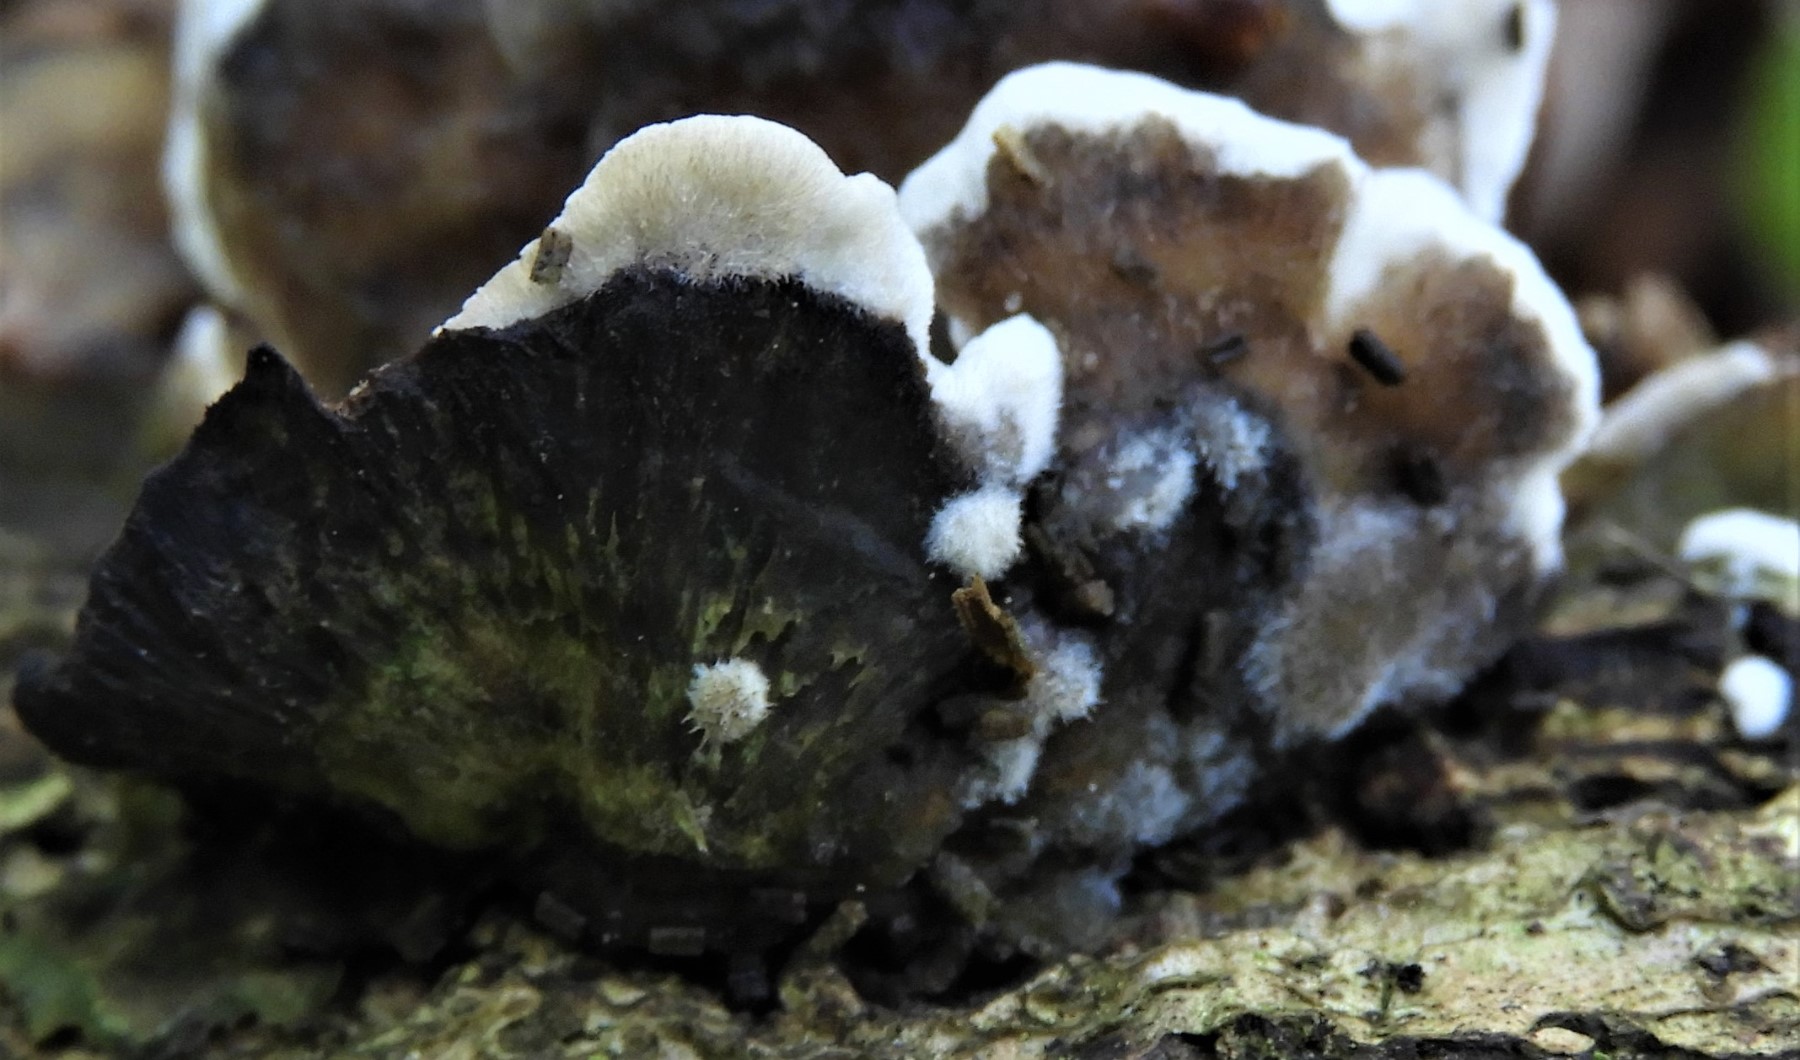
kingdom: Fungi
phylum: Basidiomycota
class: Agaricomycetes
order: Hymenochaetales
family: Hymenochaetaceae
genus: Mensularia
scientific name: Mensularia nodulosa
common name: bøge-spejlporesvamp
